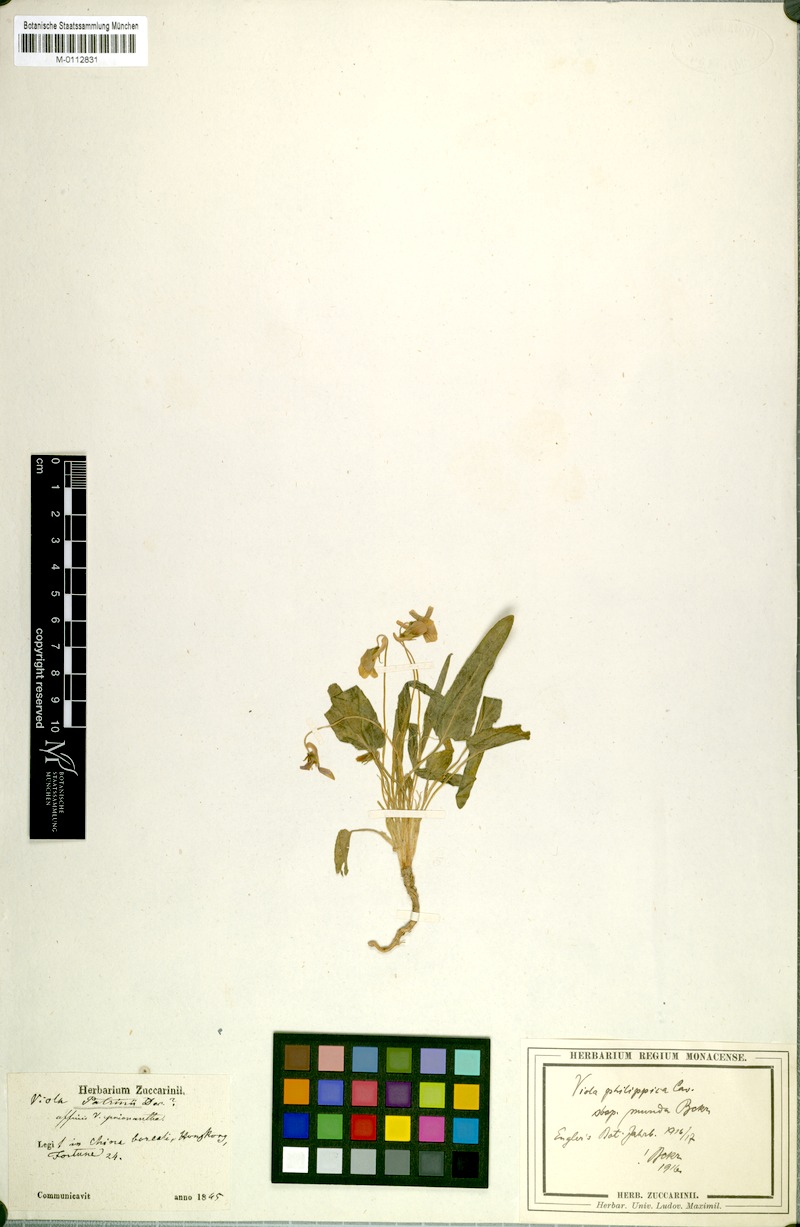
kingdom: Plantae
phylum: Tracheophyta
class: Magnoliopsida
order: Malpighiales
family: Violaceae
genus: Viola
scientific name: Viola philippica
